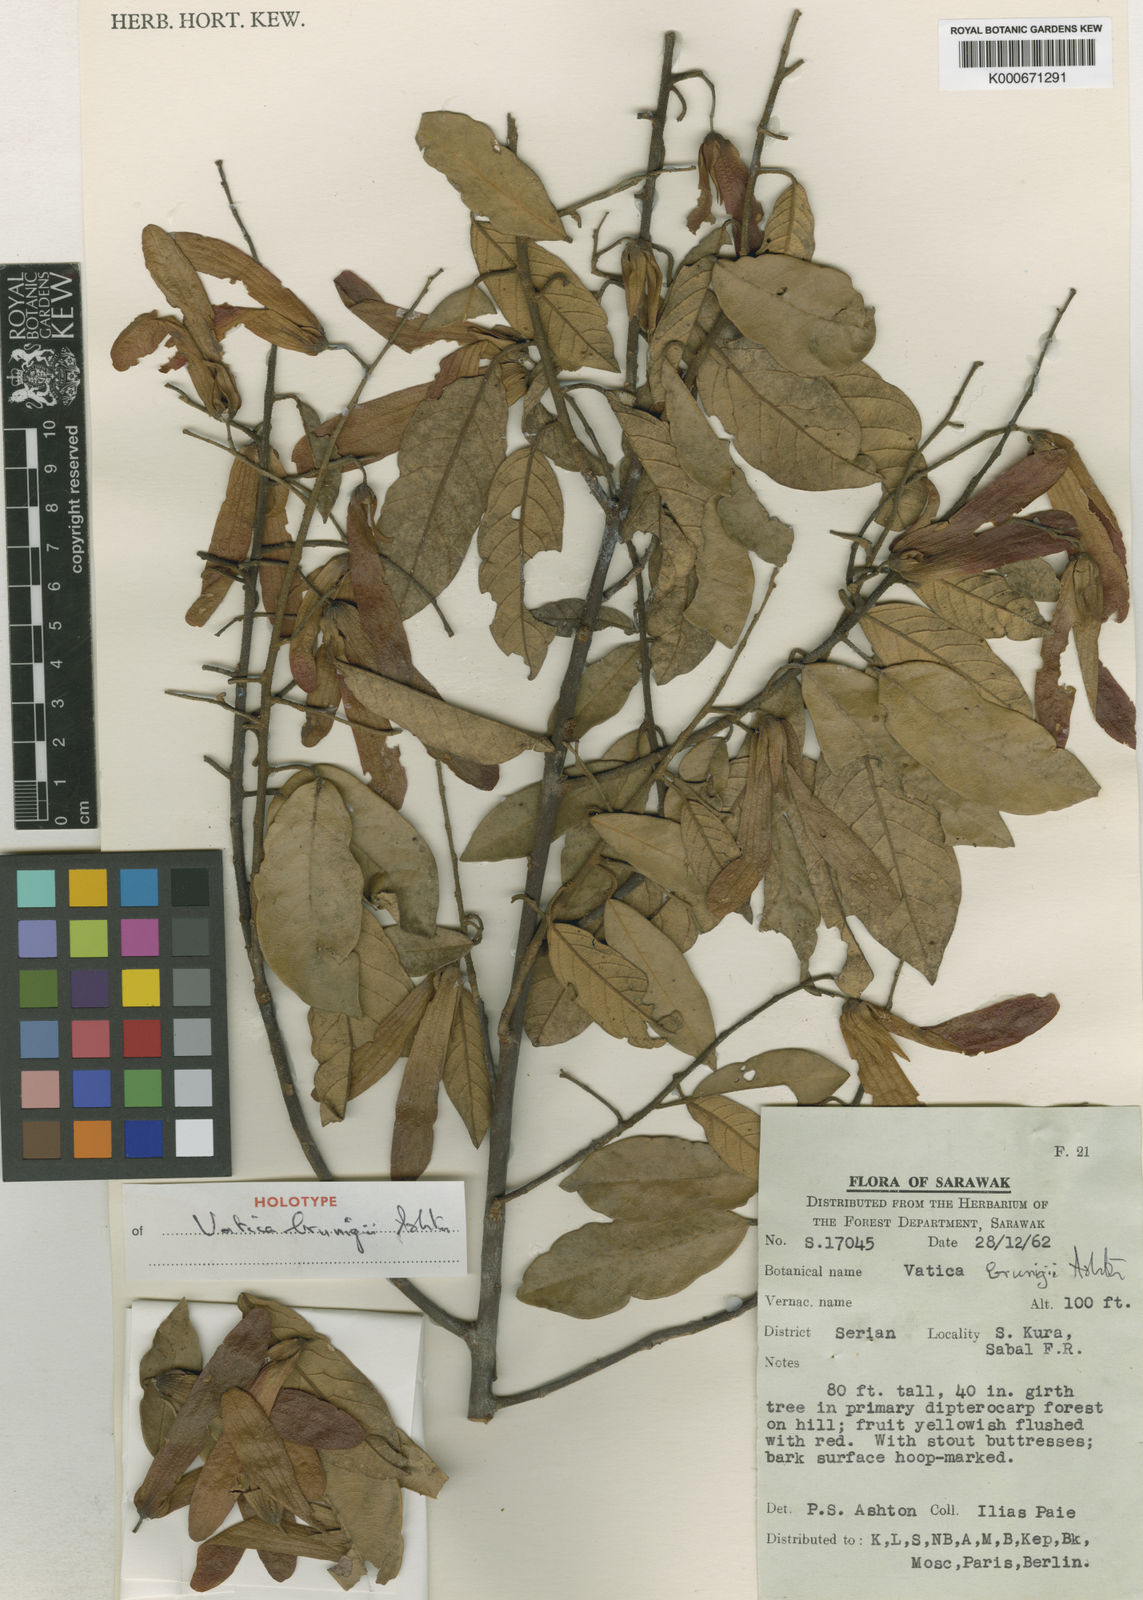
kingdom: Plantae
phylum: Tracheophyta
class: Magnoliopsida
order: Malvales
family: Dipterocarpaceae
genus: Vatica
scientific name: Vatica brunigii
